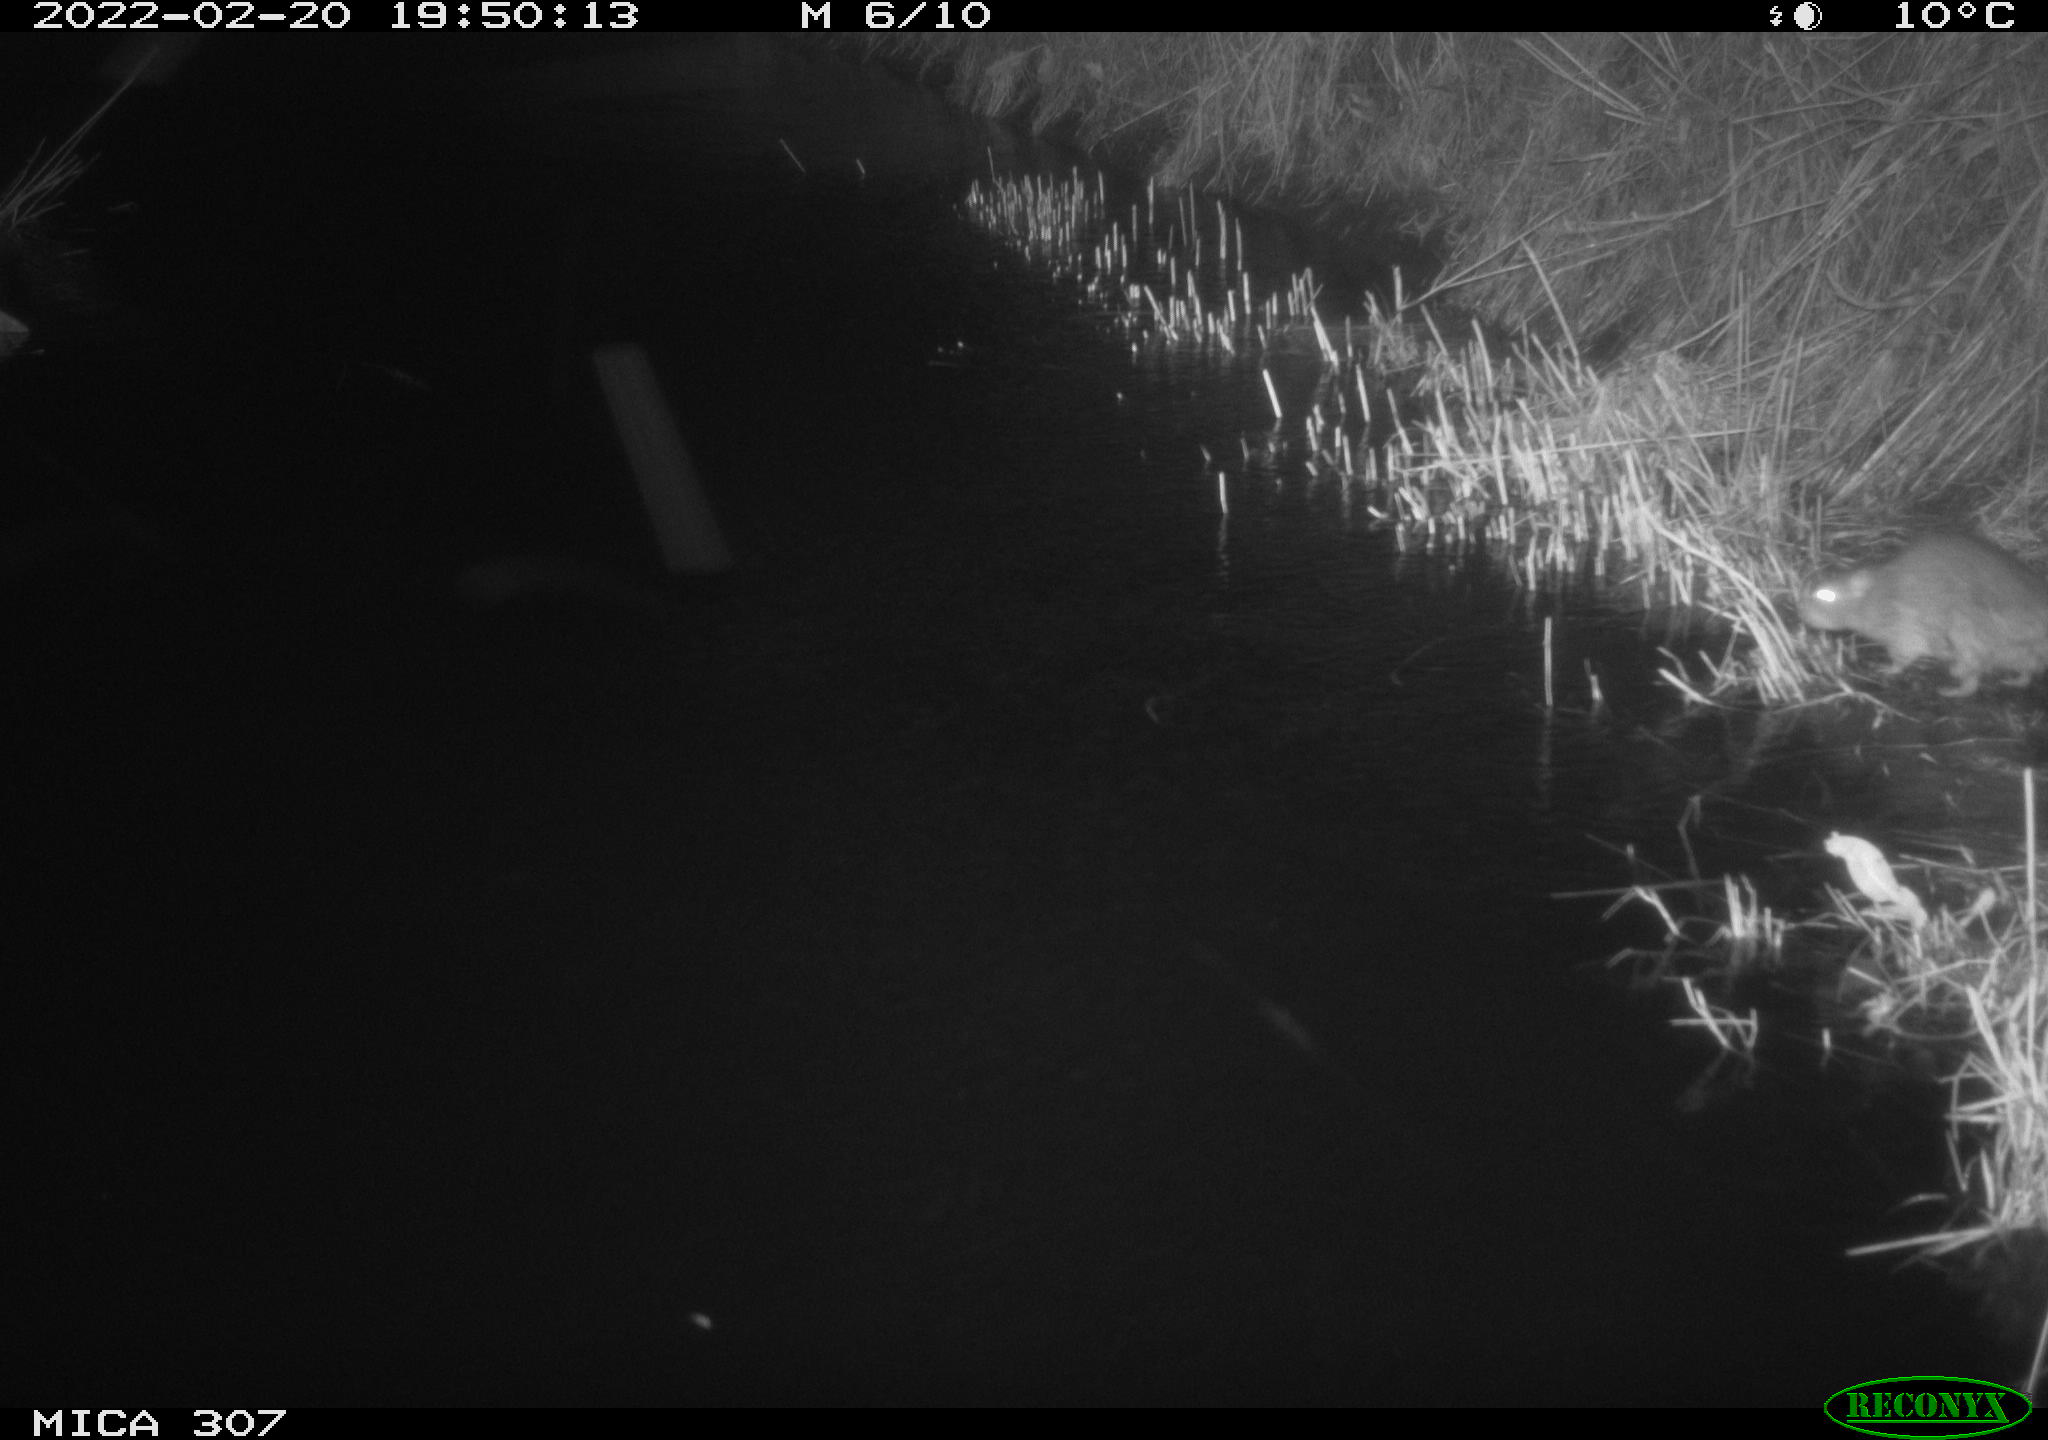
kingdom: Animalia
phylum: Chordata
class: Mammalia
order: Rodentia
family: Muridae
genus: Rattus
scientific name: Rattus norvegicus
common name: Brown rat
